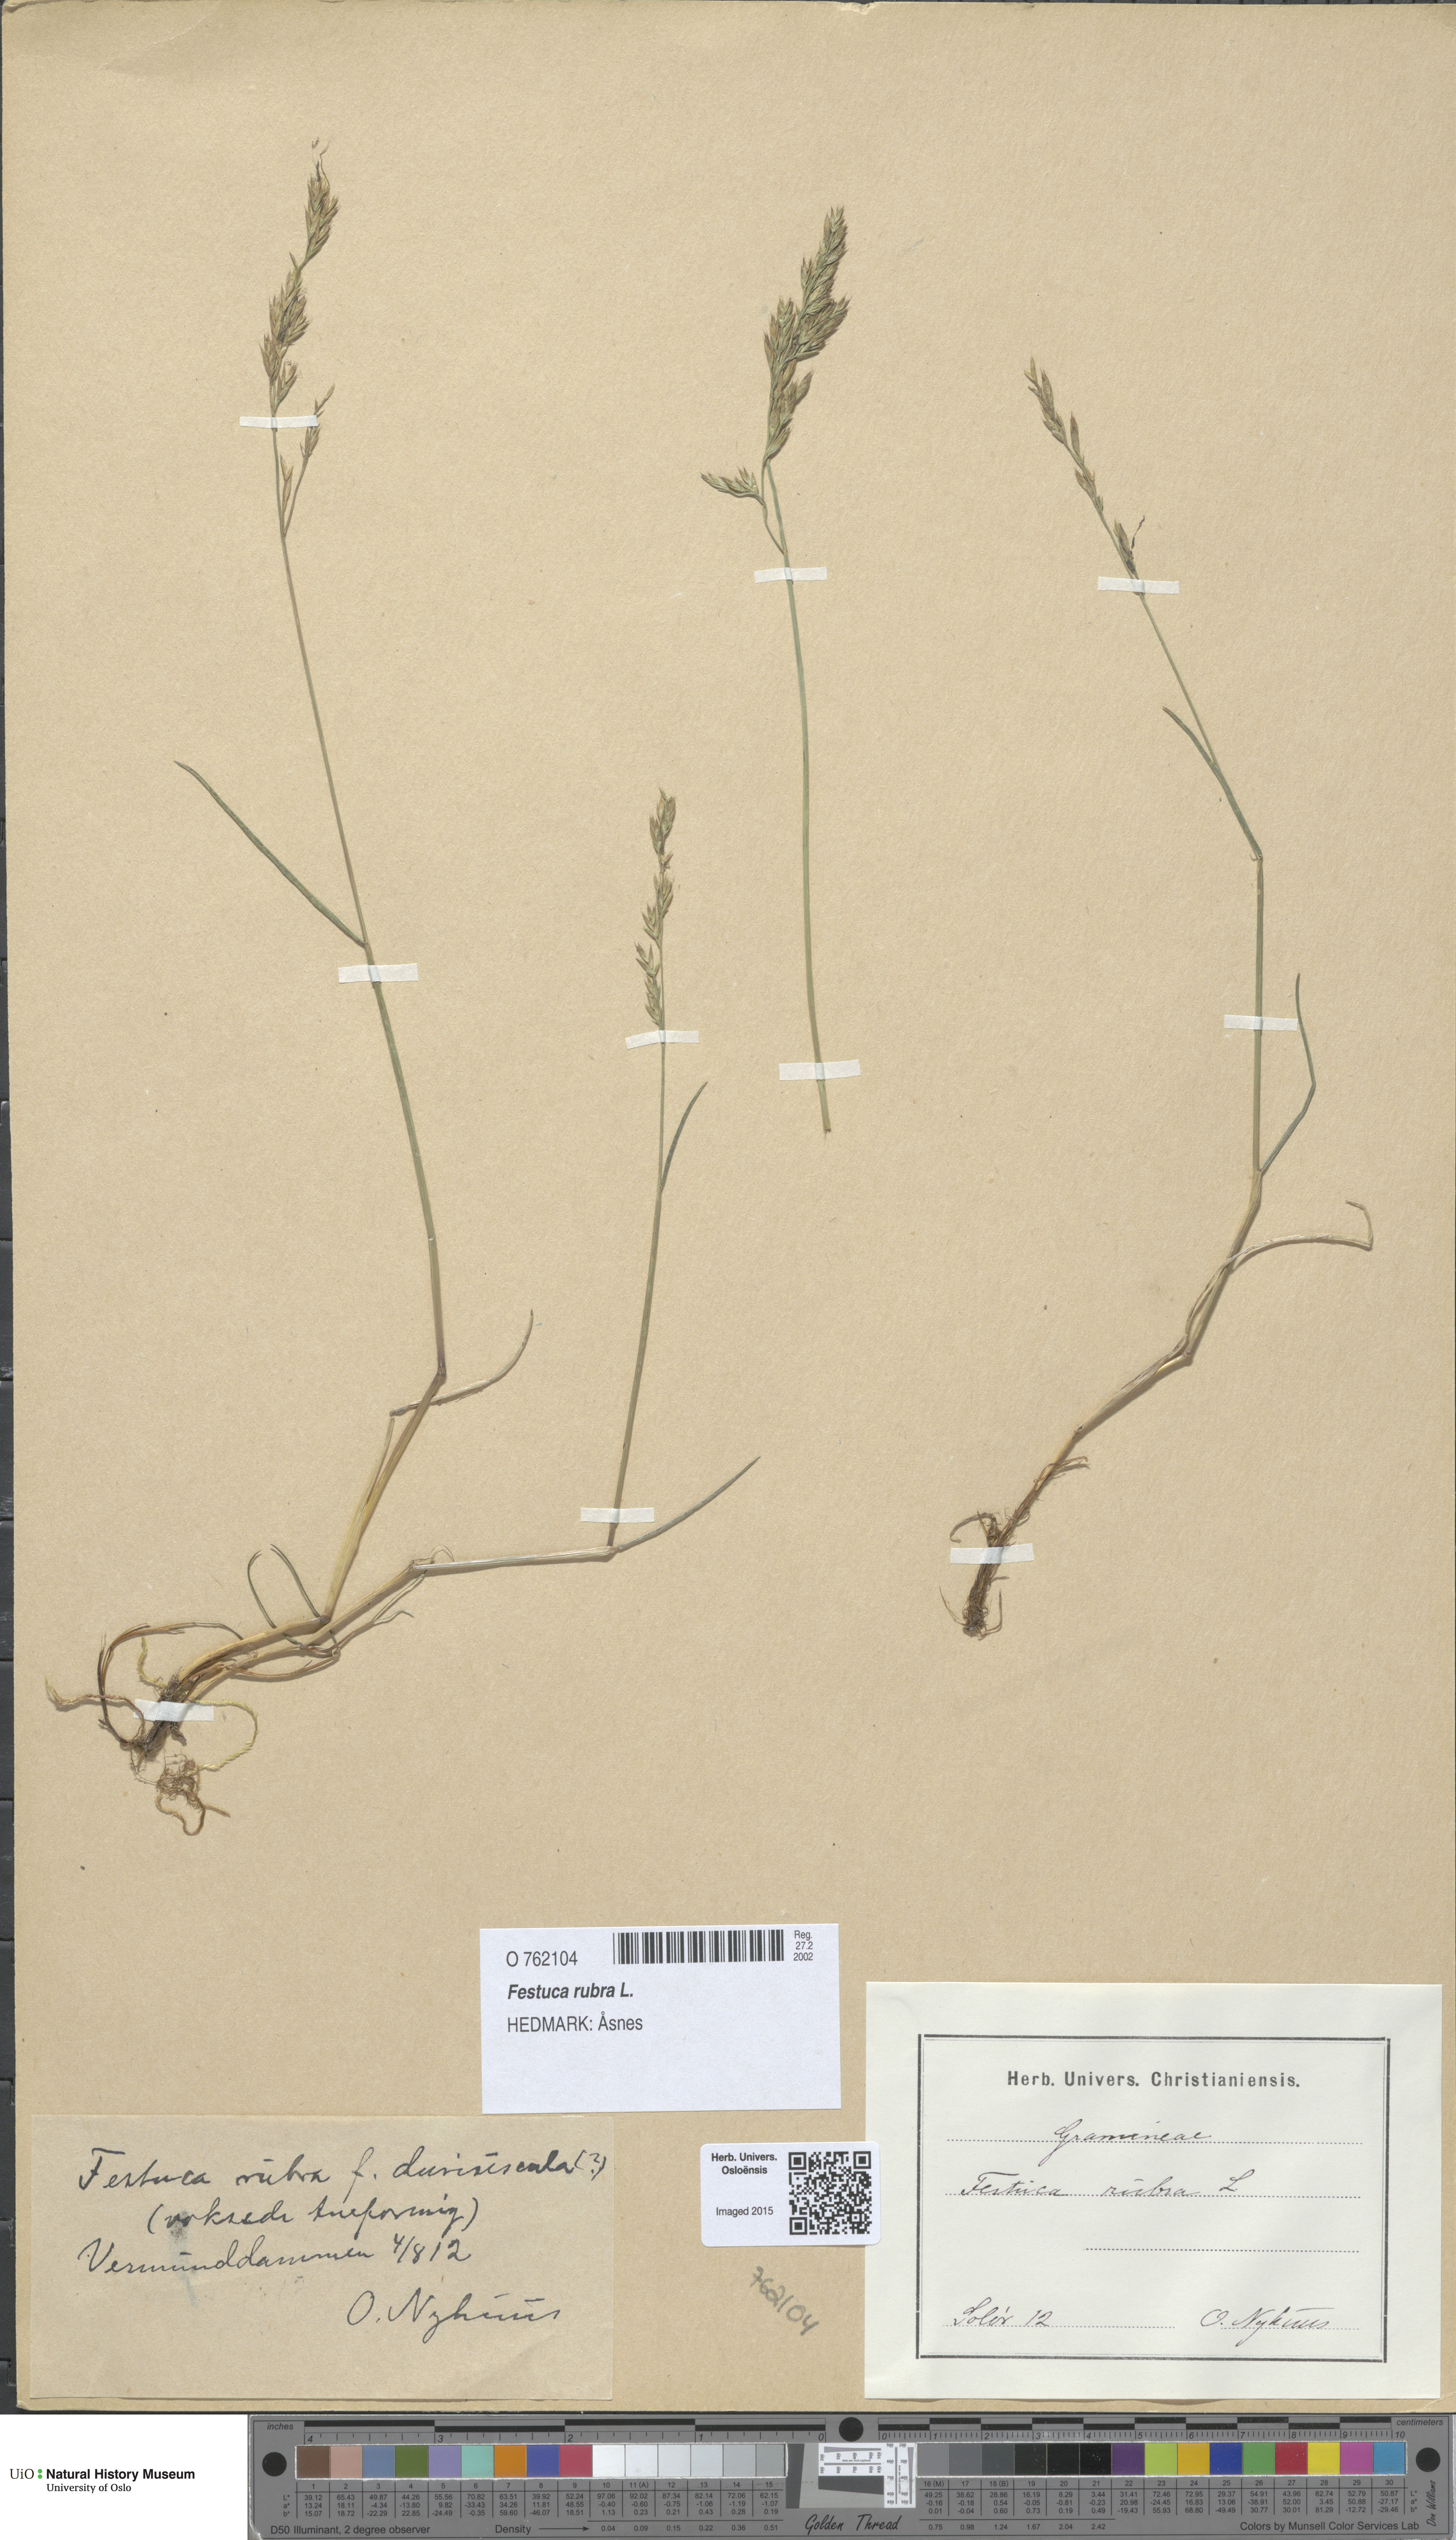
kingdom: Plantae
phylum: Tracheophyta
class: Liliopsida
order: Poales
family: Poaceae
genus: Festuca
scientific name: Festuca rubra
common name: Red fescue
